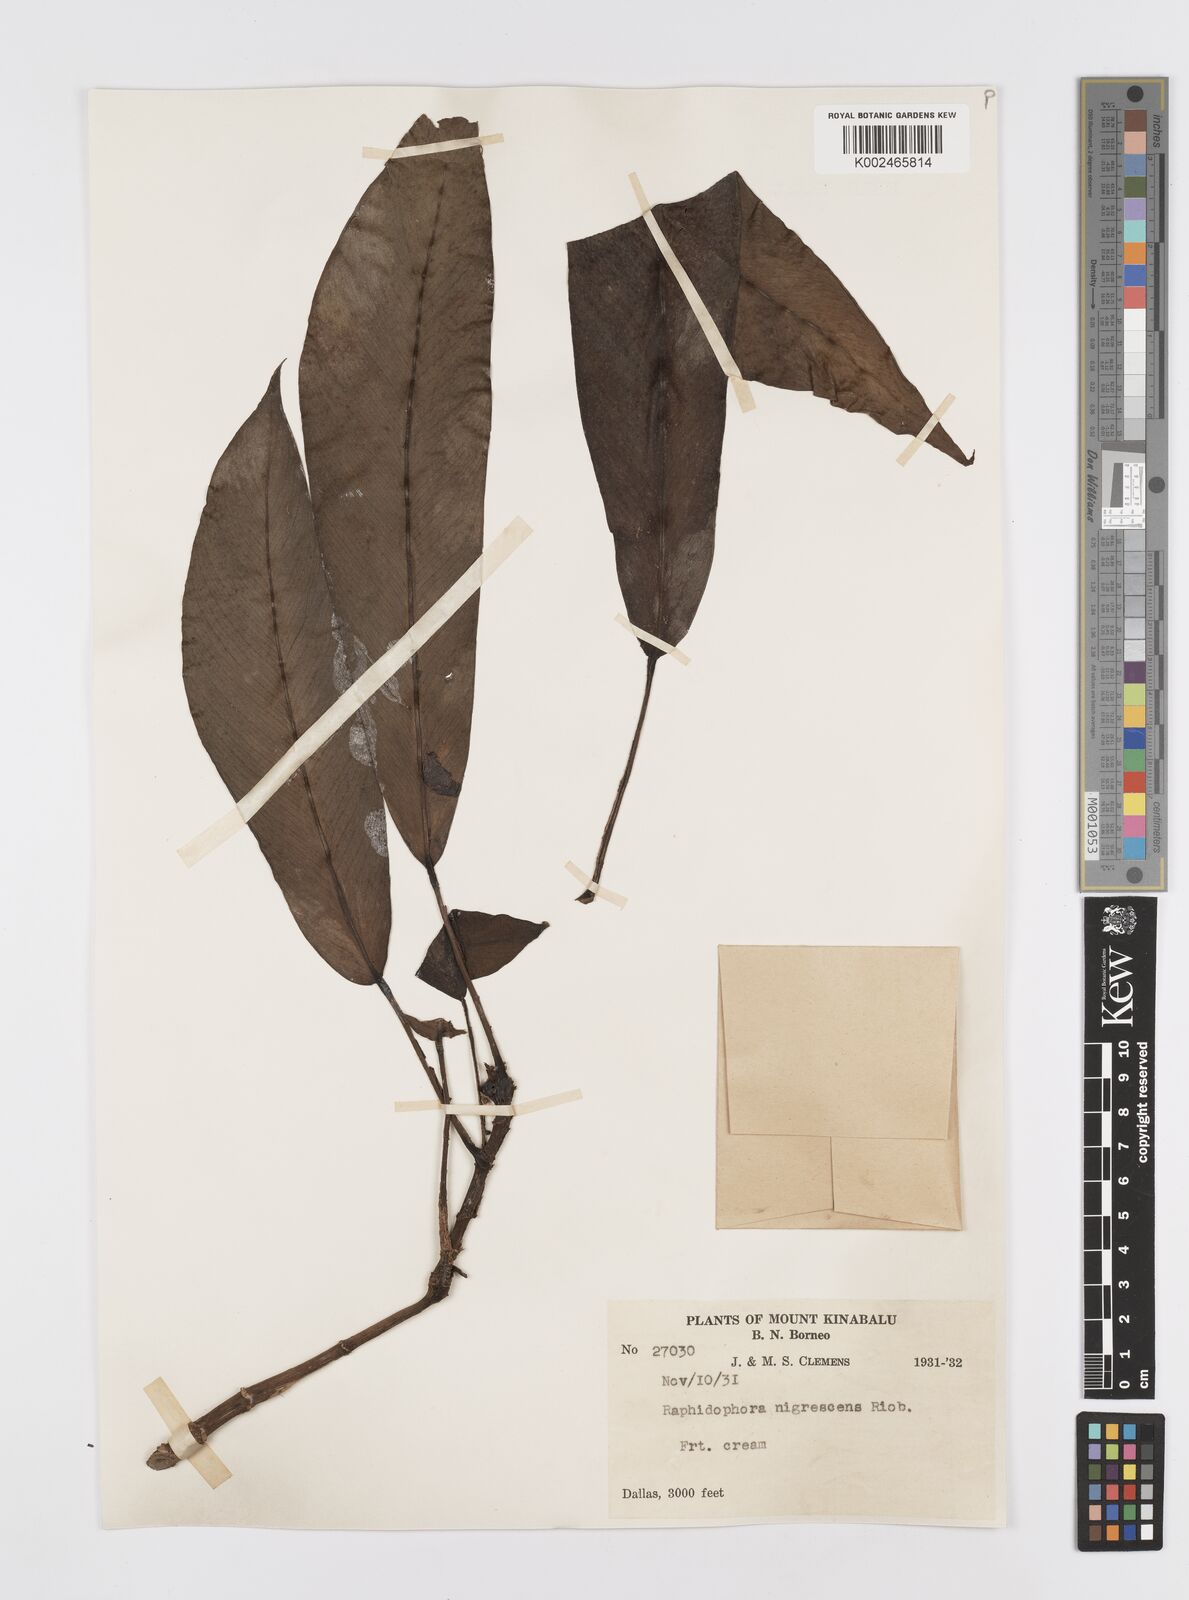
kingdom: Plantae
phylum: Tracheophyta
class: Liliopsida
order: Alismatales
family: Araceae
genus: Rhaphidophora
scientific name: Rhaphidophora sylvestris
